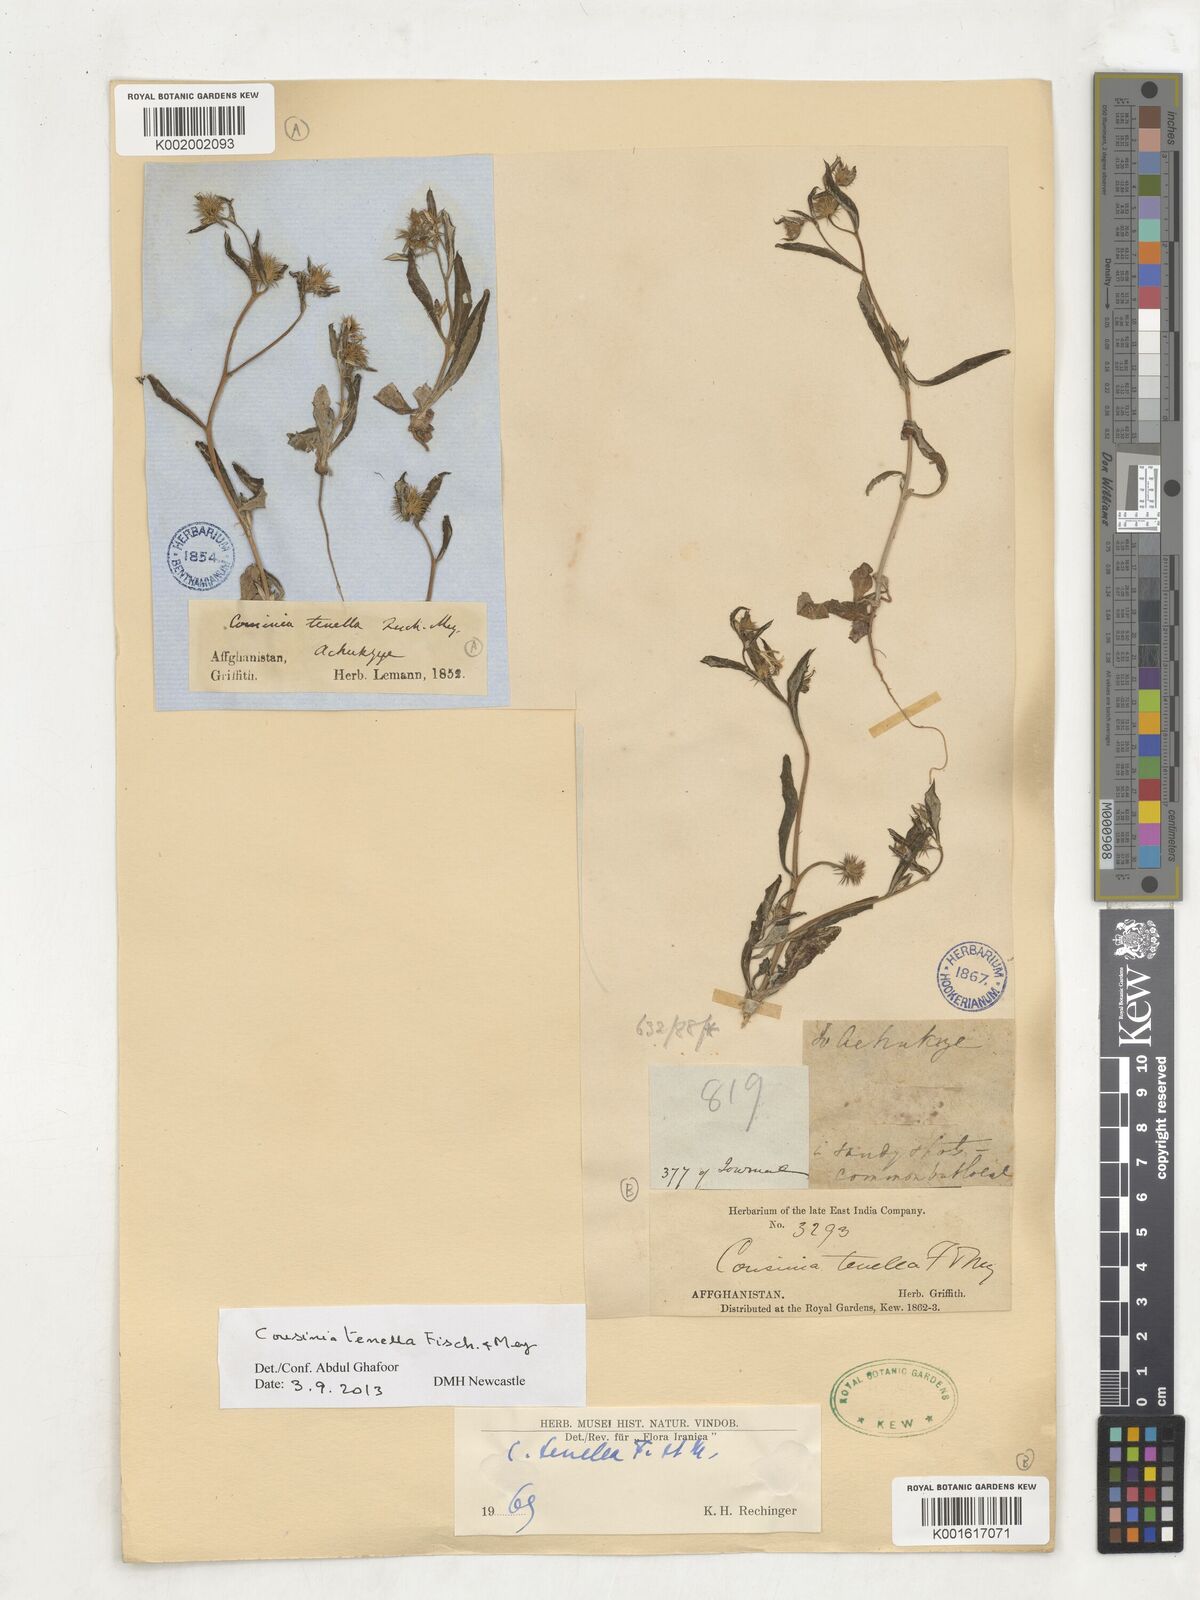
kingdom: Plantae
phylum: Tracheophyta
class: Magnoliopsida
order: Asterales
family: Asteraceae
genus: Cousinia
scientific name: Cousinia tenella
